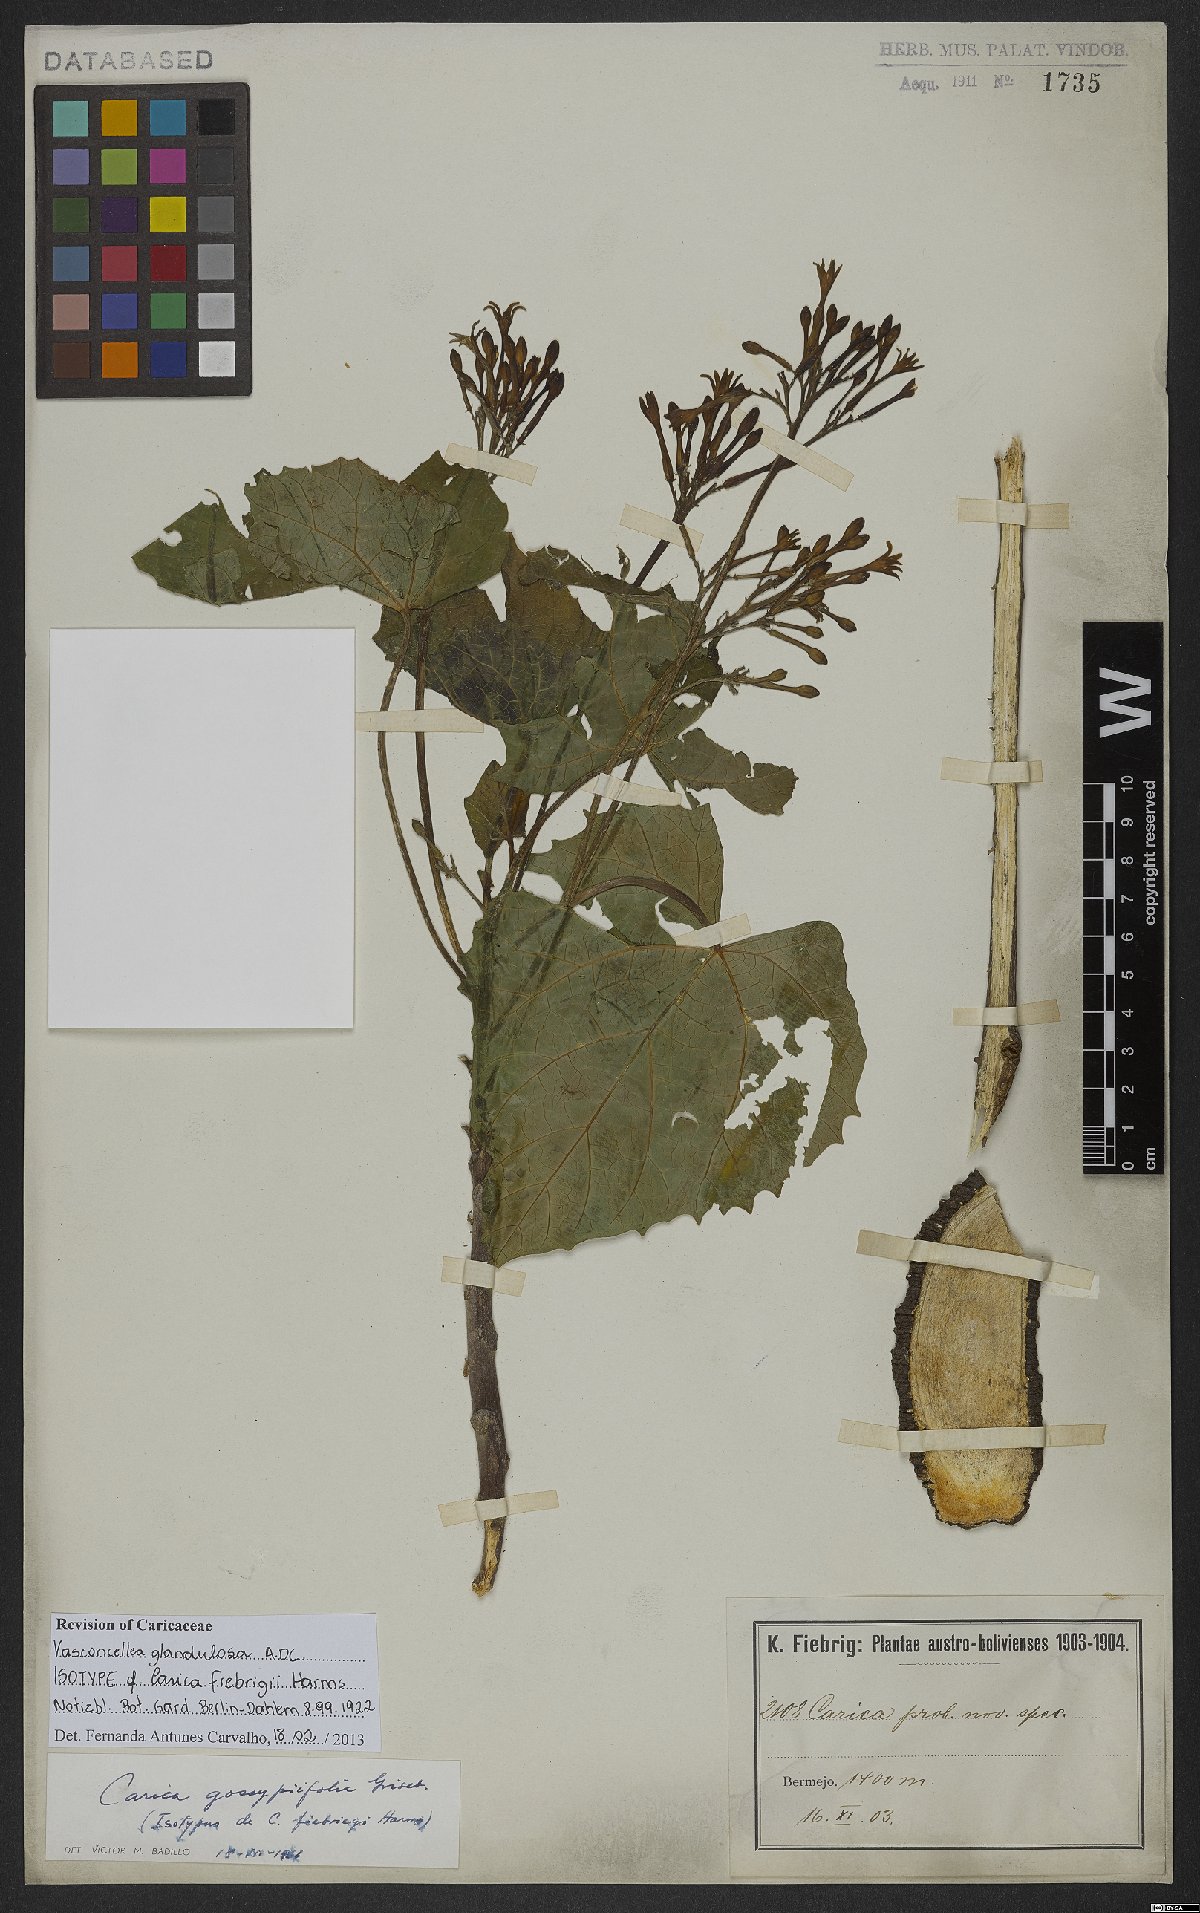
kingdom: Plantae
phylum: Tracheophyta
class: Magnoliopsida
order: Brassicales
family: Caricaceae
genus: Vasconcellea
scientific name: Vasconcellea glandulosa
